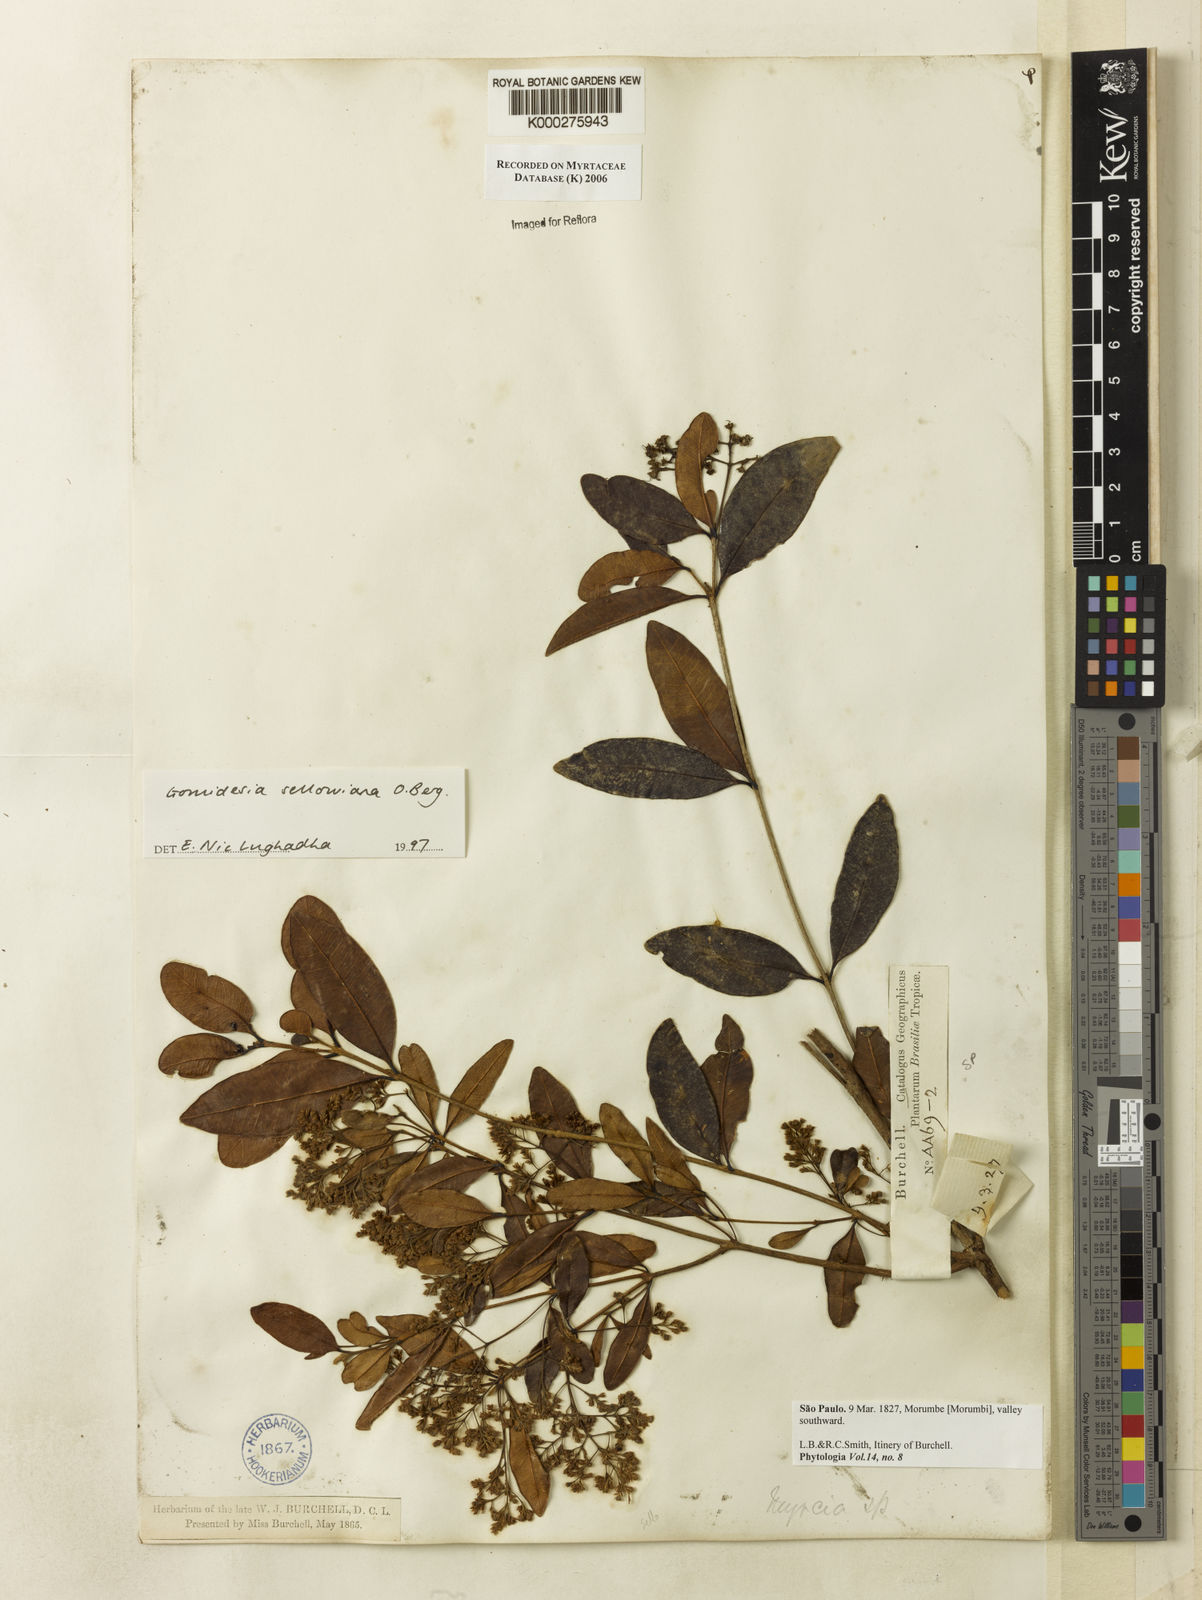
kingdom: Plantae
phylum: Tracheophyta
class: Magnoliopsida
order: Myrtales
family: Myrtaceae
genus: Myrcia
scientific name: Myrcia hartwegiana
